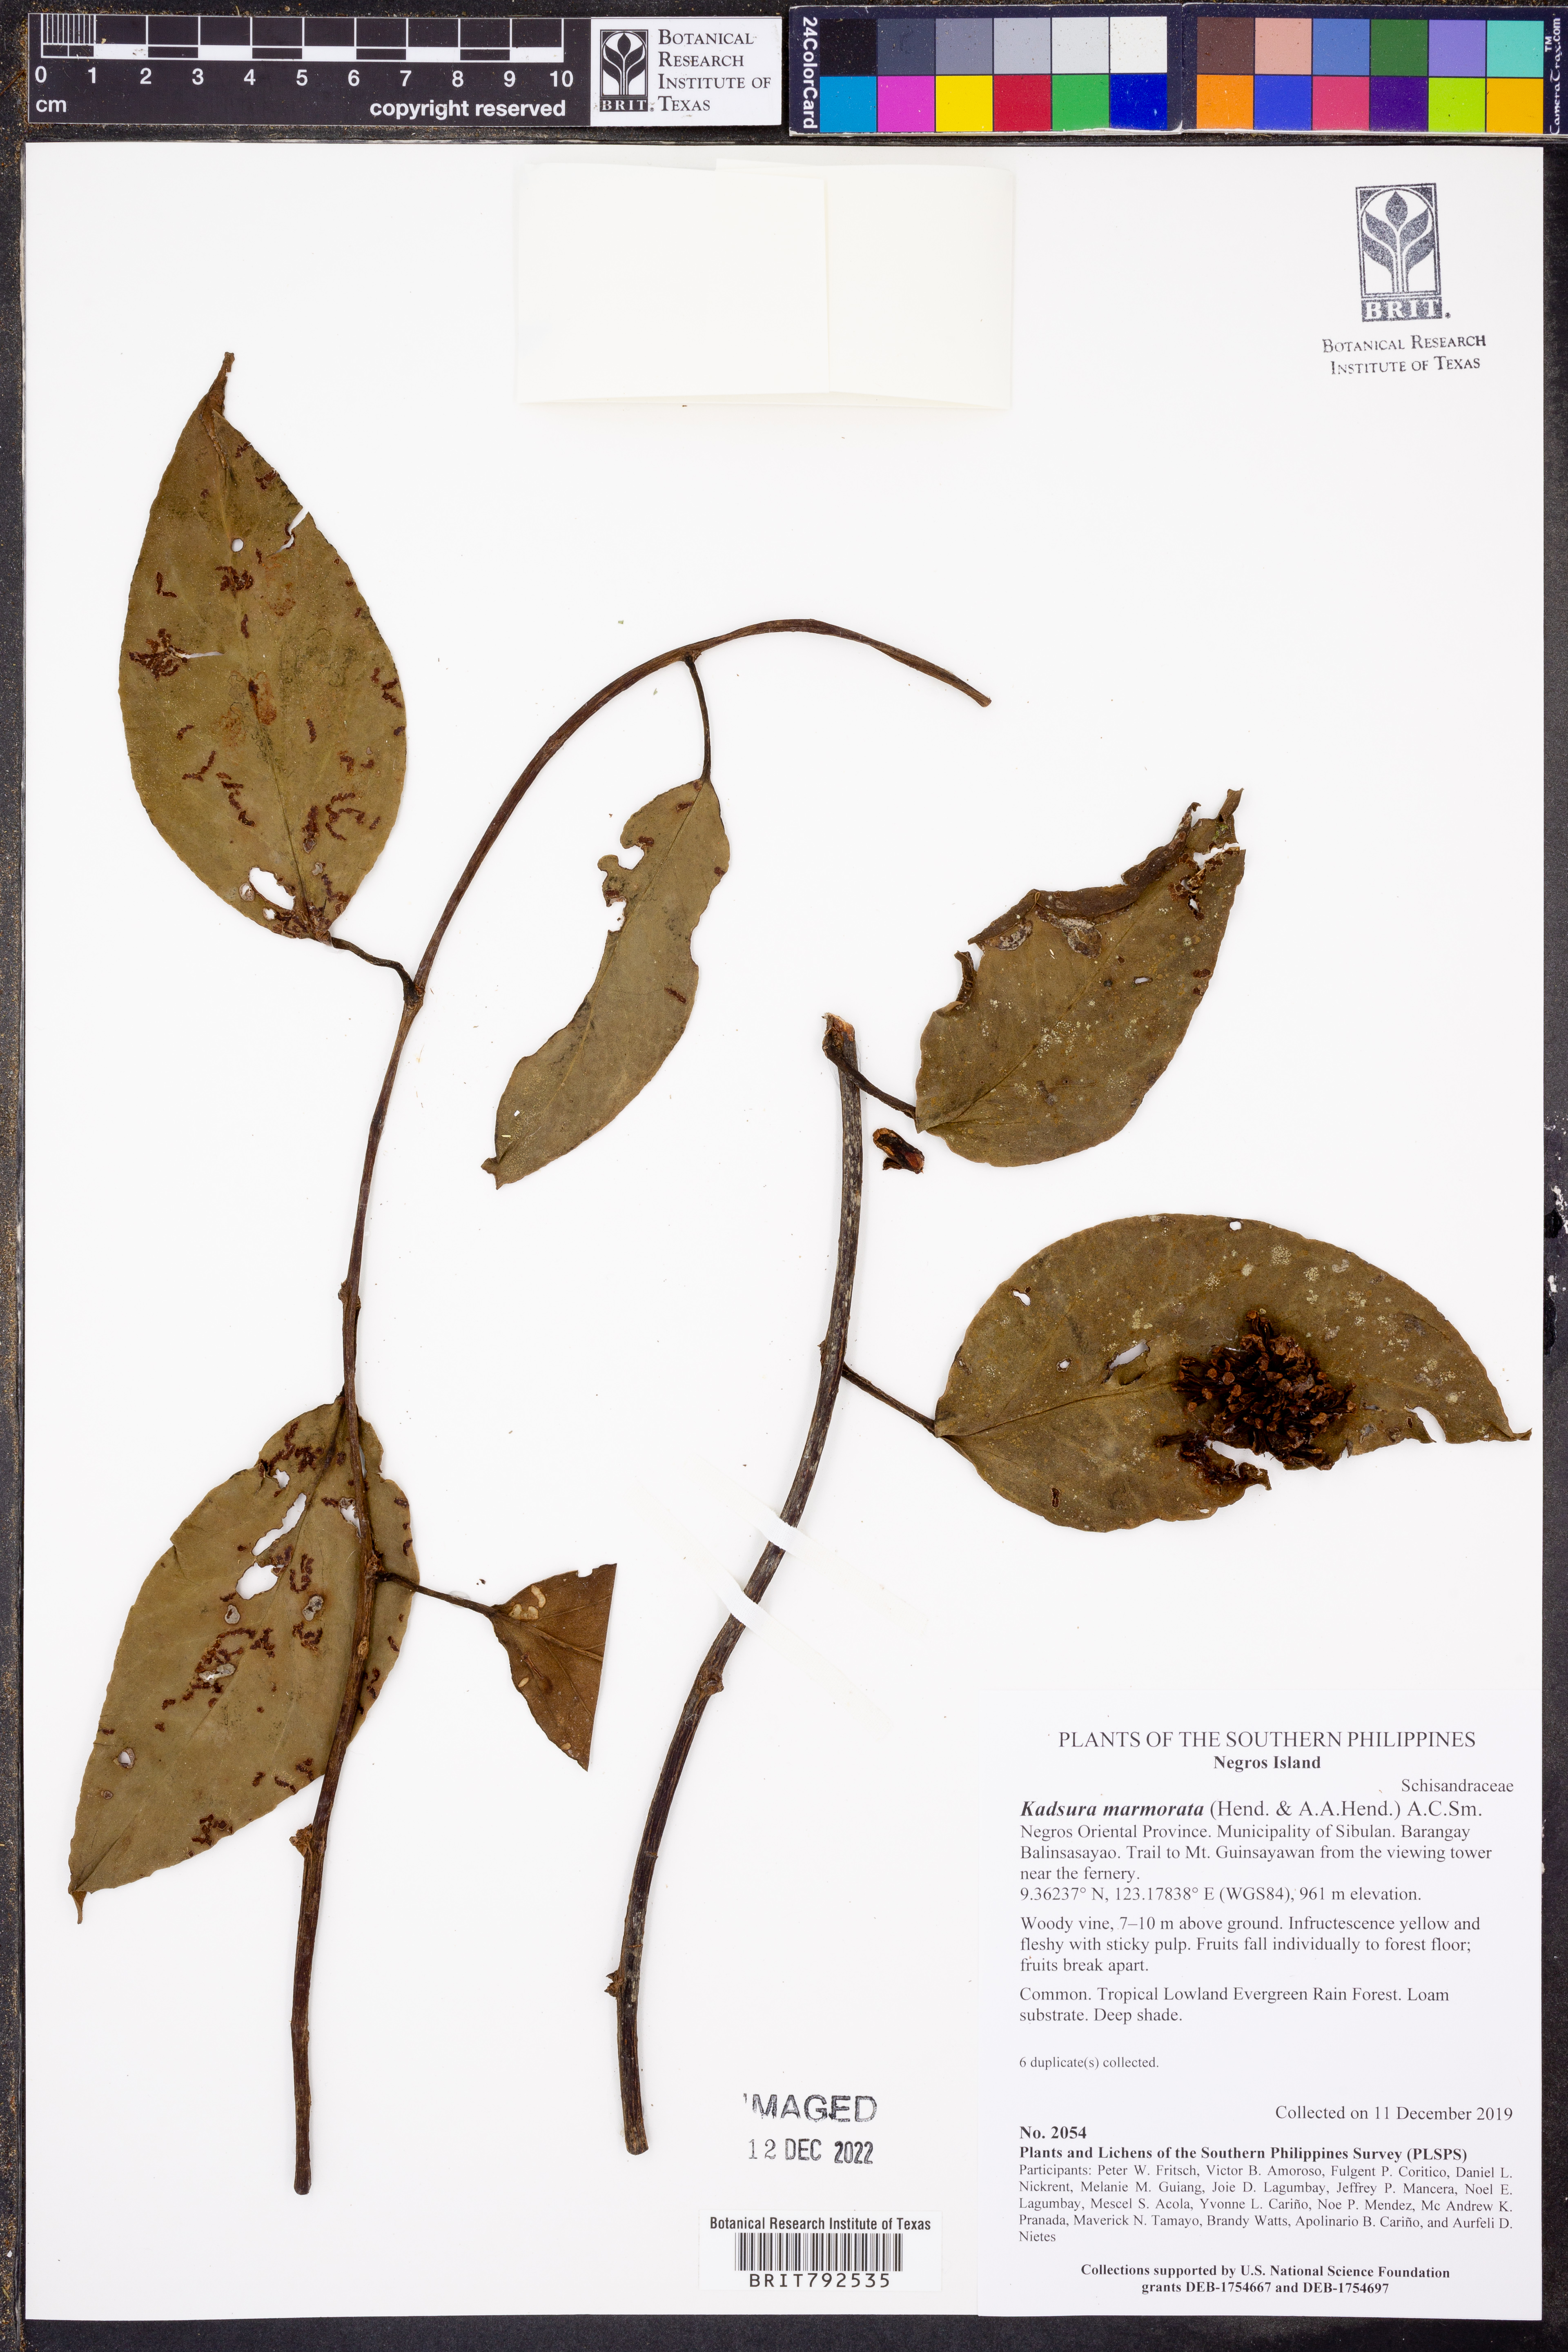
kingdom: Plantae
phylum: Tracheophyta
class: Magnoliopsida
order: Austrobaileyales
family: Schisandraceae
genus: Kadsura
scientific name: Kadsura marmorata
